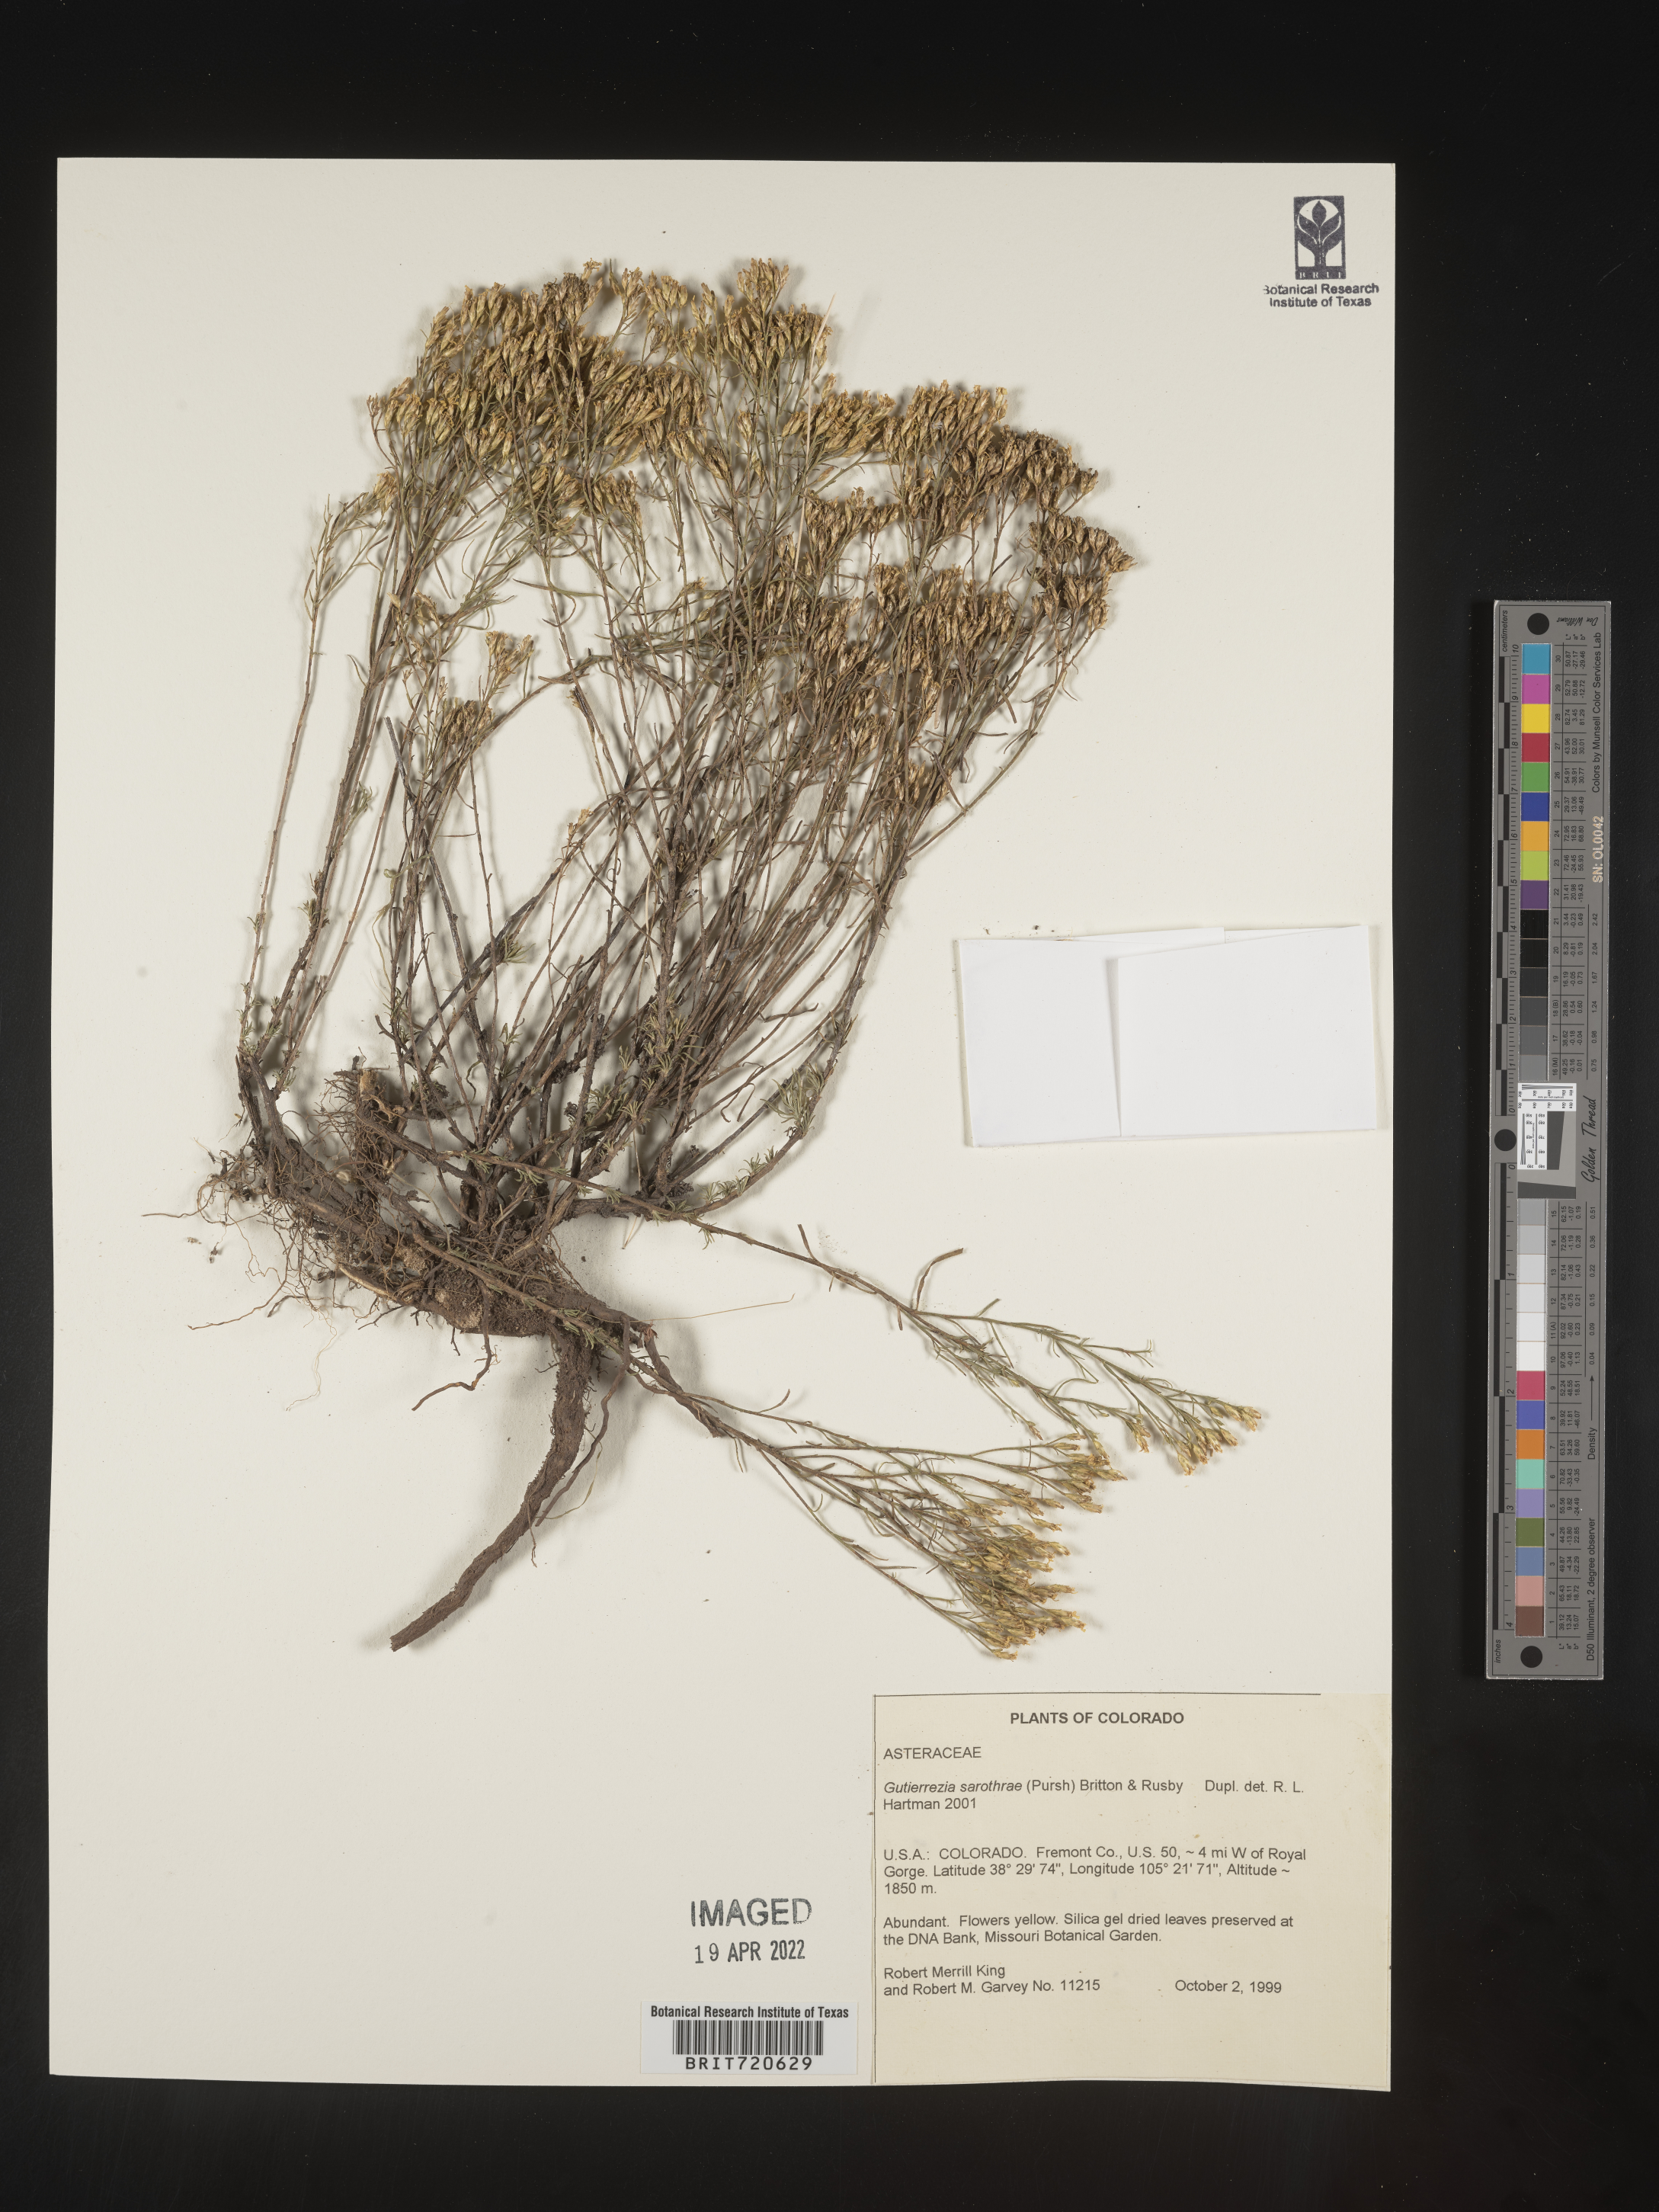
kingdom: Plantae
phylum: Tracheophyta
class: Magnoliopsida
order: Asterales
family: Asteraceae
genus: Gutierrezia
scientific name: Gutierrezia sarothrae
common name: Broom snakeweed
